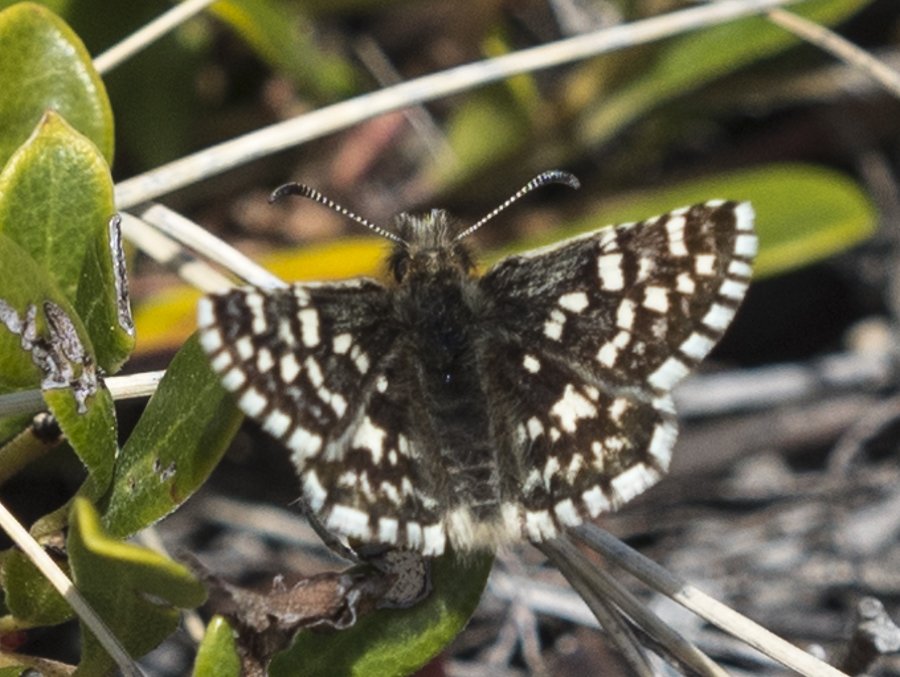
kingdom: Animalia
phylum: Arthropoda
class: Insecta
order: Lepidoptera
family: Hesperiidae
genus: Pyrgus
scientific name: Pyrgus ruralis
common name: Two-banded Checkered-Skipper
